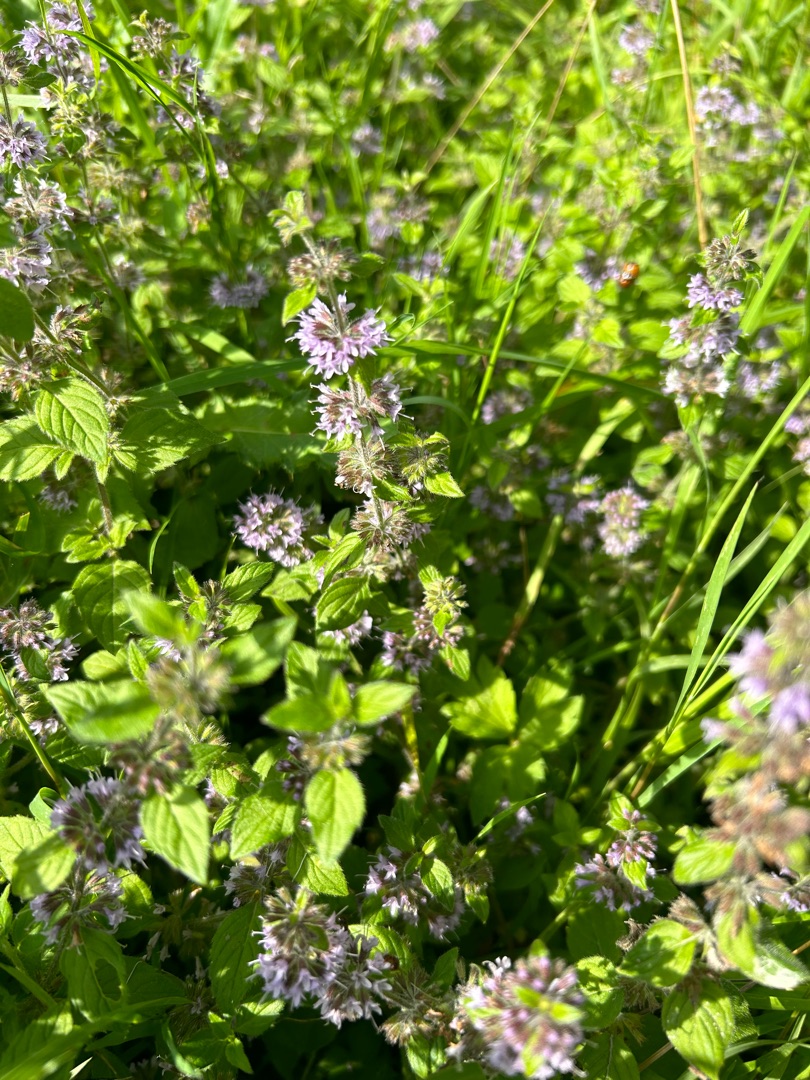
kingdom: Plantae
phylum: Tracheophyta
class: Magnoliopsida
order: Lamiales
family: Lamiaceae
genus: Mentha
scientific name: Mentha verticillata
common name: Krans-mynte
